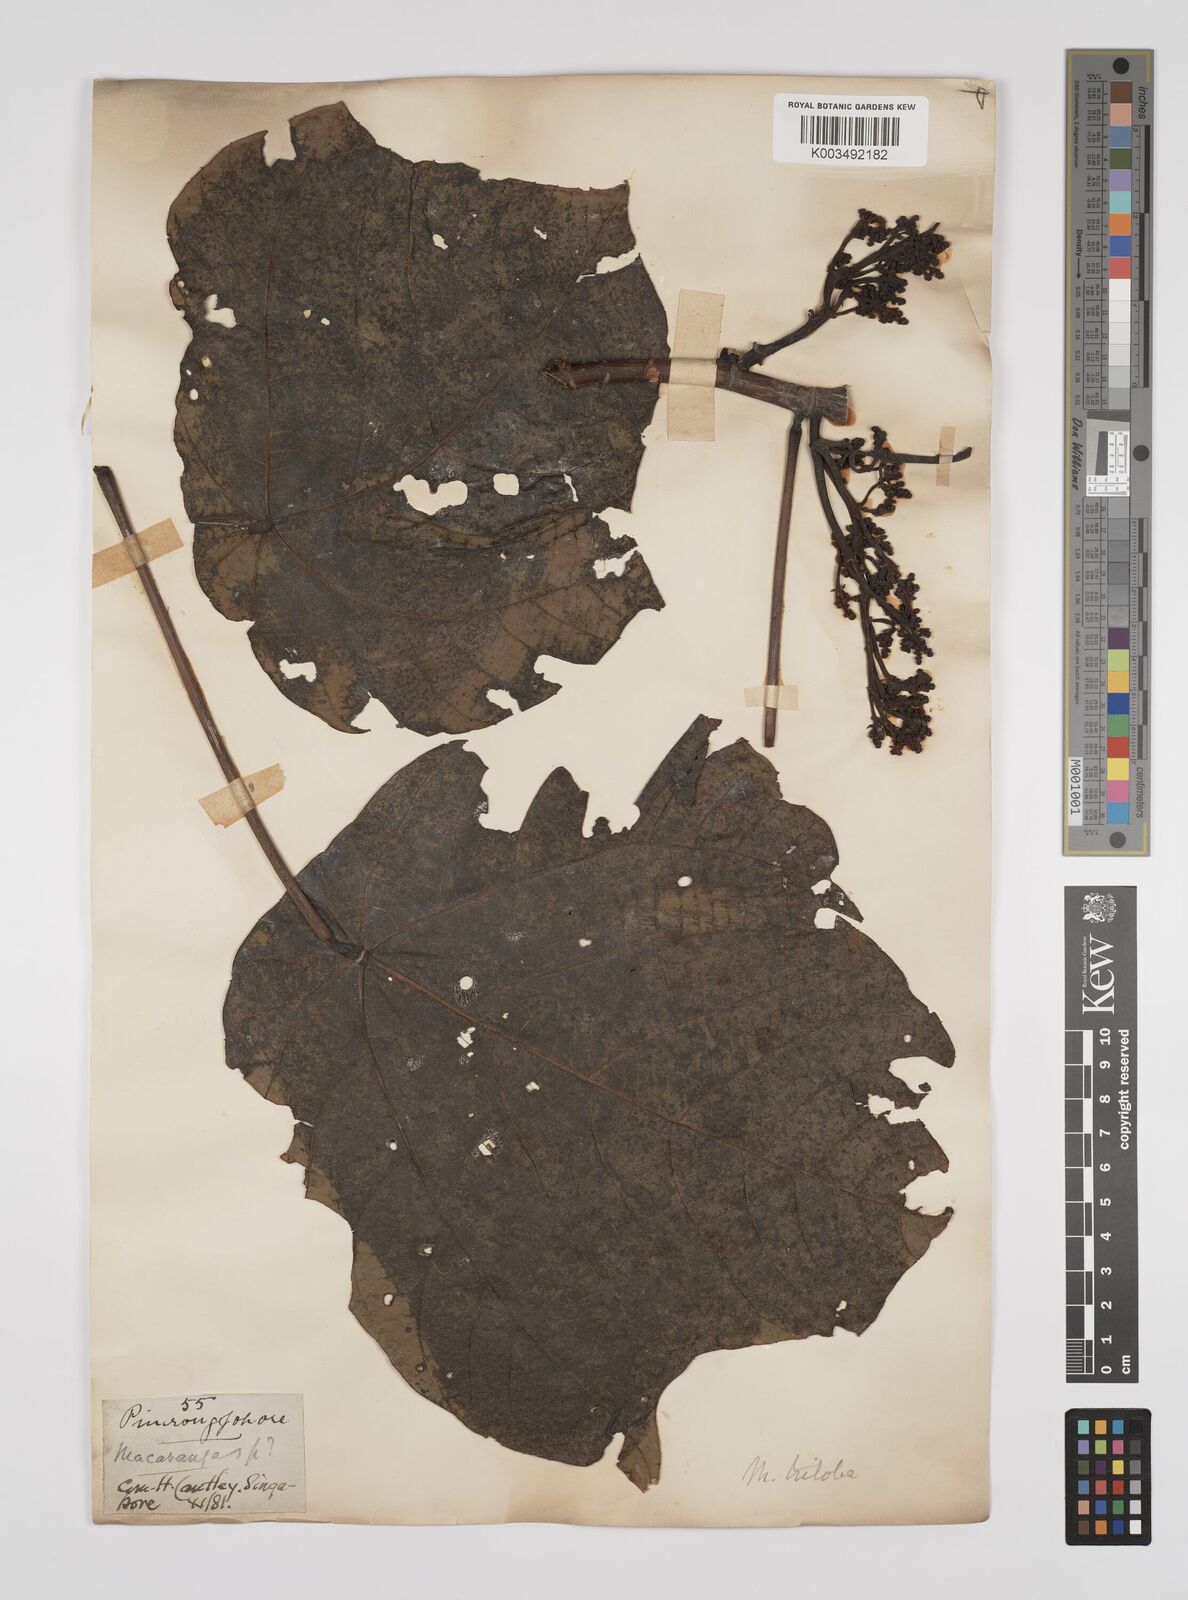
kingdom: Plantae
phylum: Tracheophyta
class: Magnoliopsida
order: Malpighiales
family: Euphorbiaceae
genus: Macaranga
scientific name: Macaranga triloba
